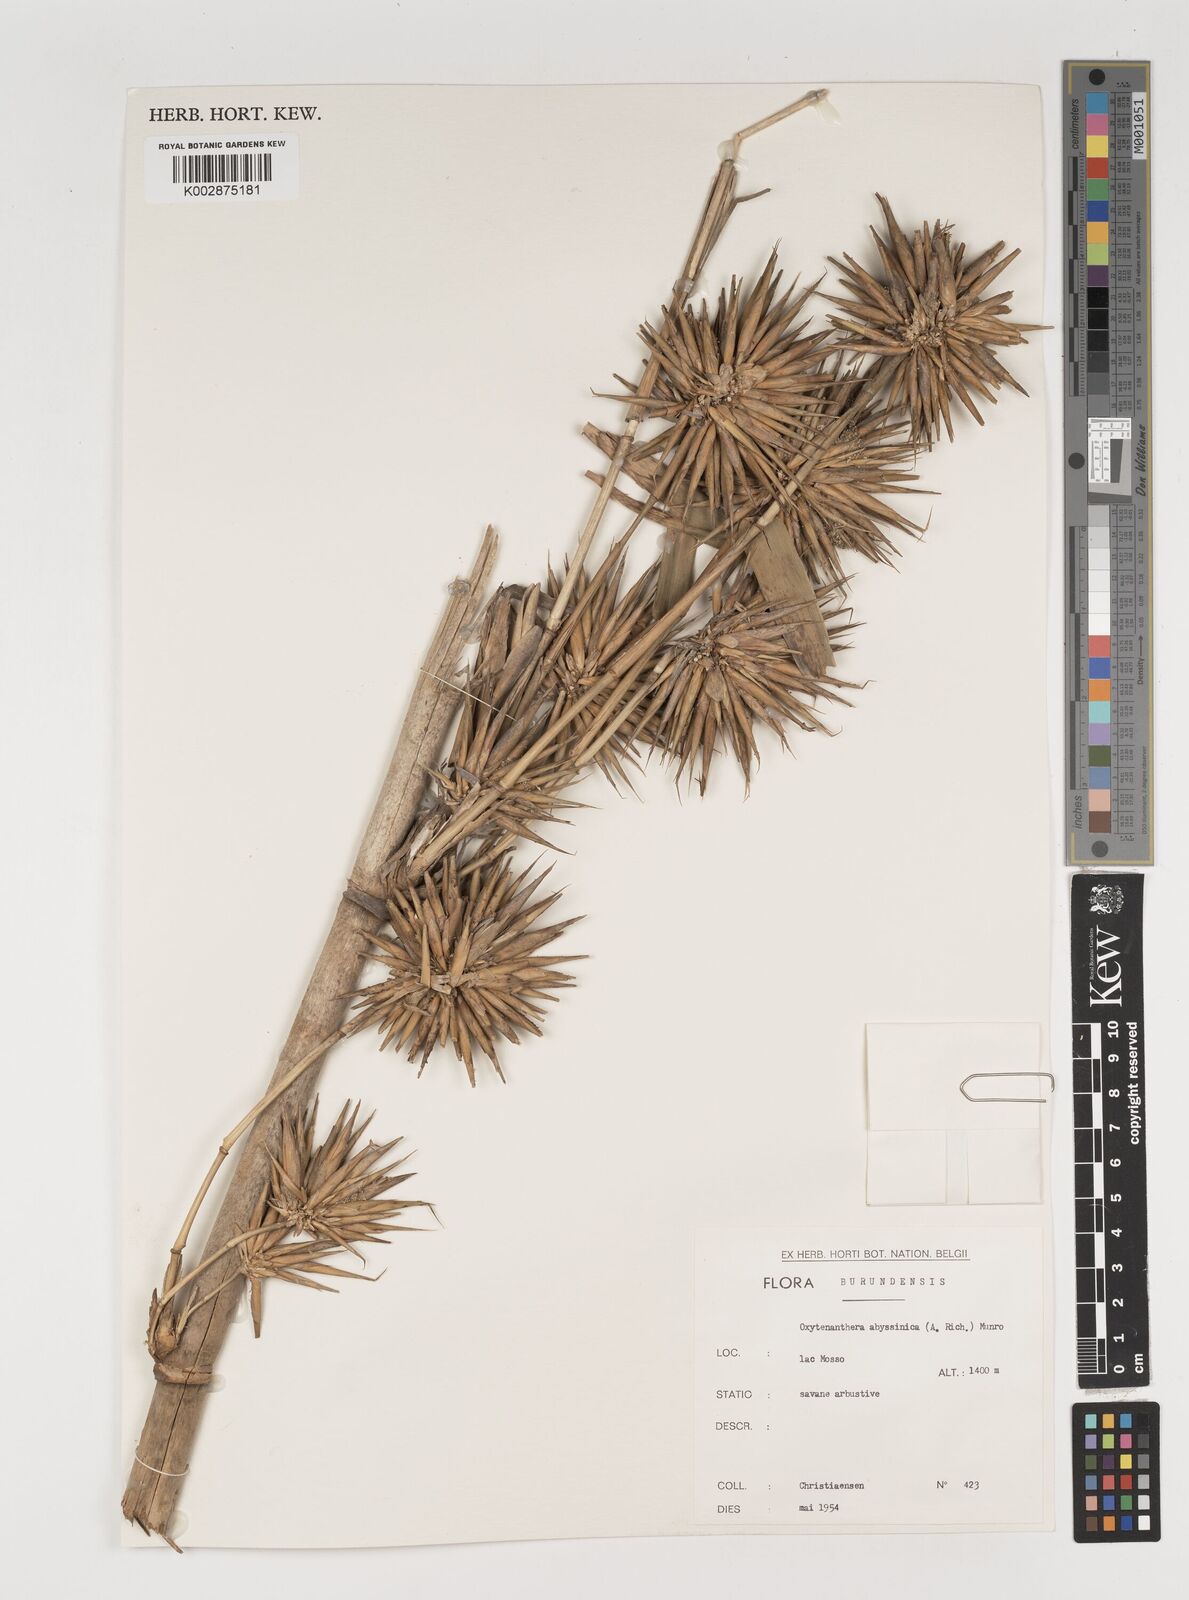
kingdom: Plantae
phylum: Tracheophyta
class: Liliopsida
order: Poales
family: Poaceae
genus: Oxytenanthera
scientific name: Oxytenanthera abyssinica
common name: Wine bamboo
